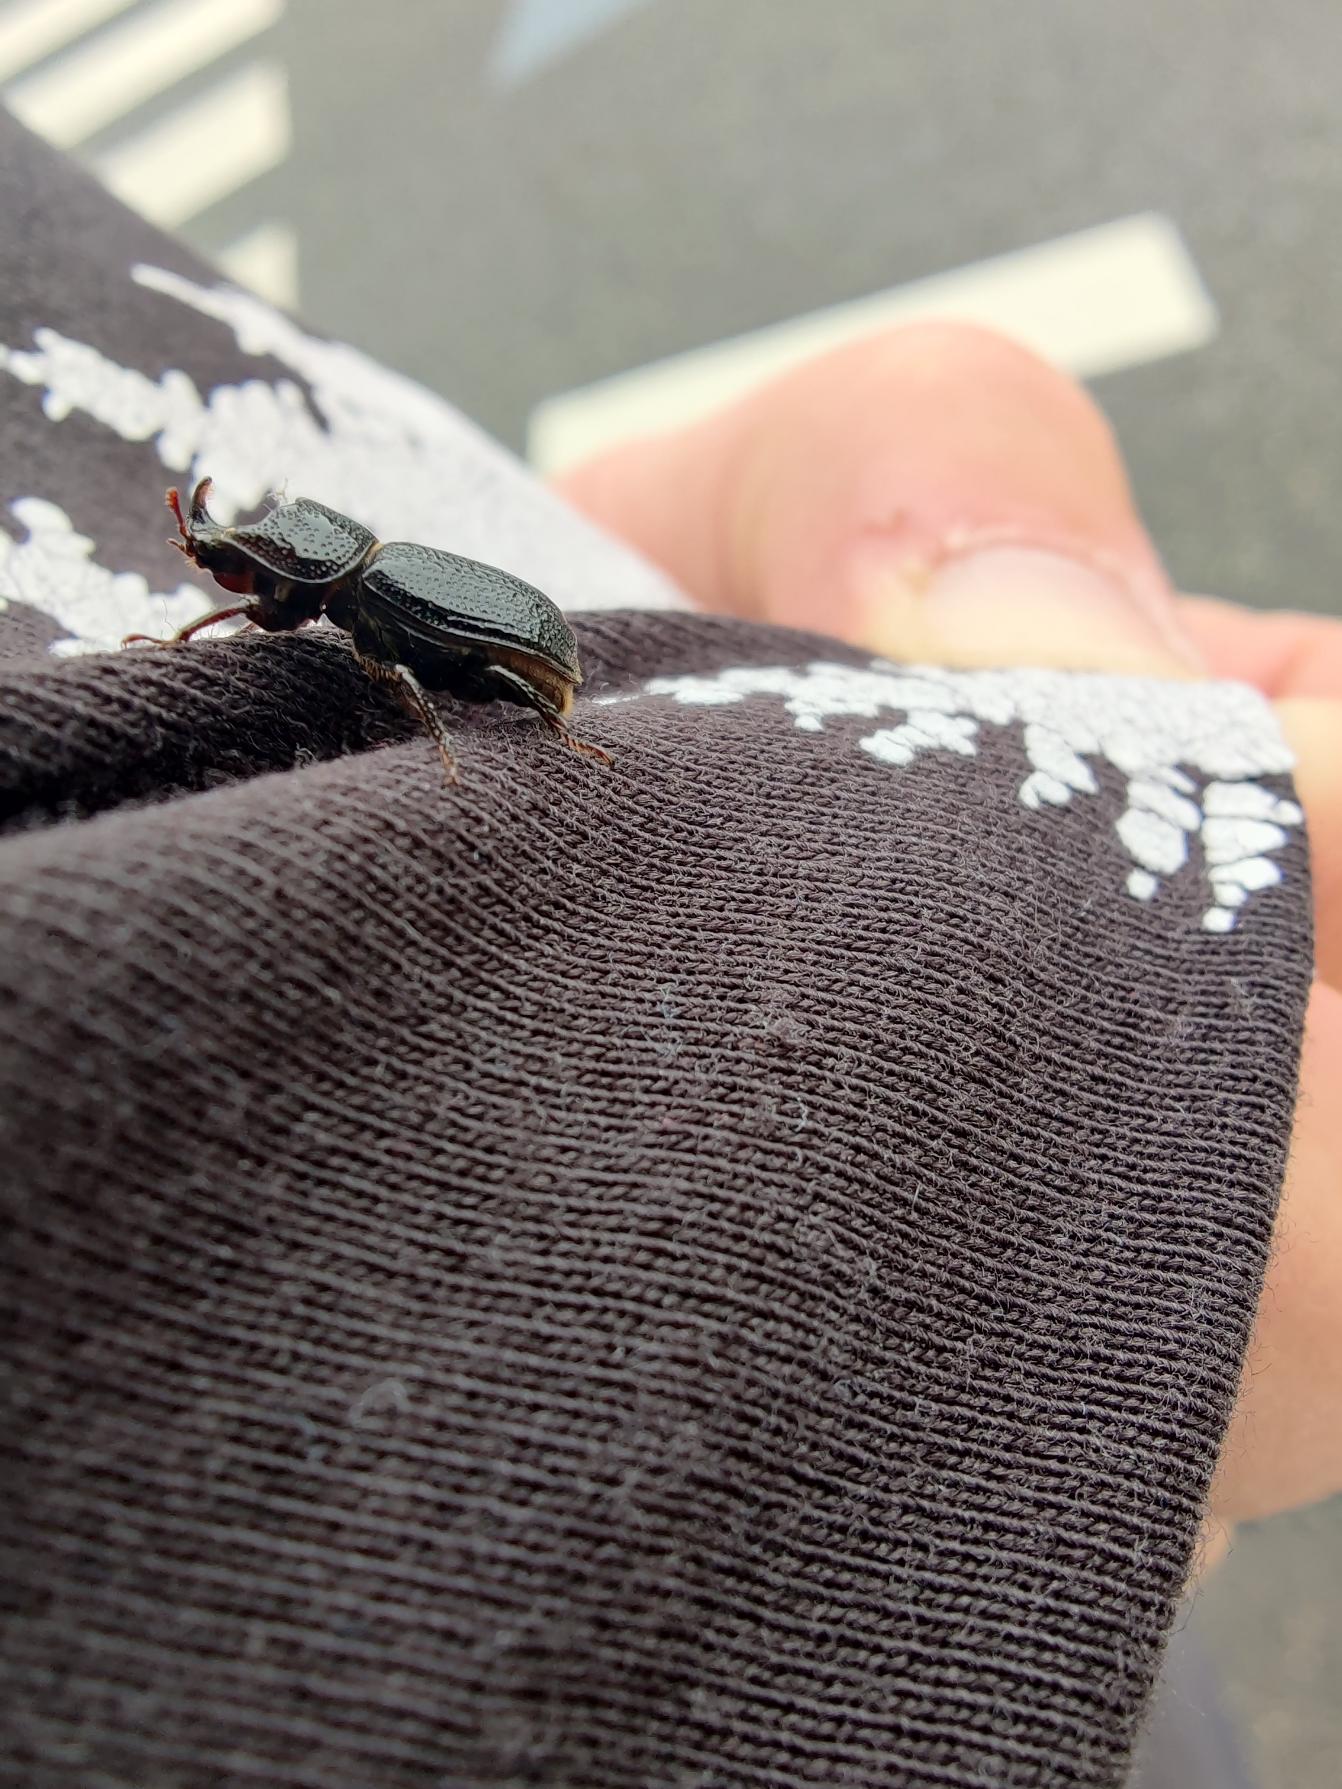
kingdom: Animalia
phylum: Arthropoda
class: Insecta
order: Coleoptera
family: Lucanidae
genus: Sinodendron
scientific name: Sinodendron cylindricum
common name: Valsehjort
